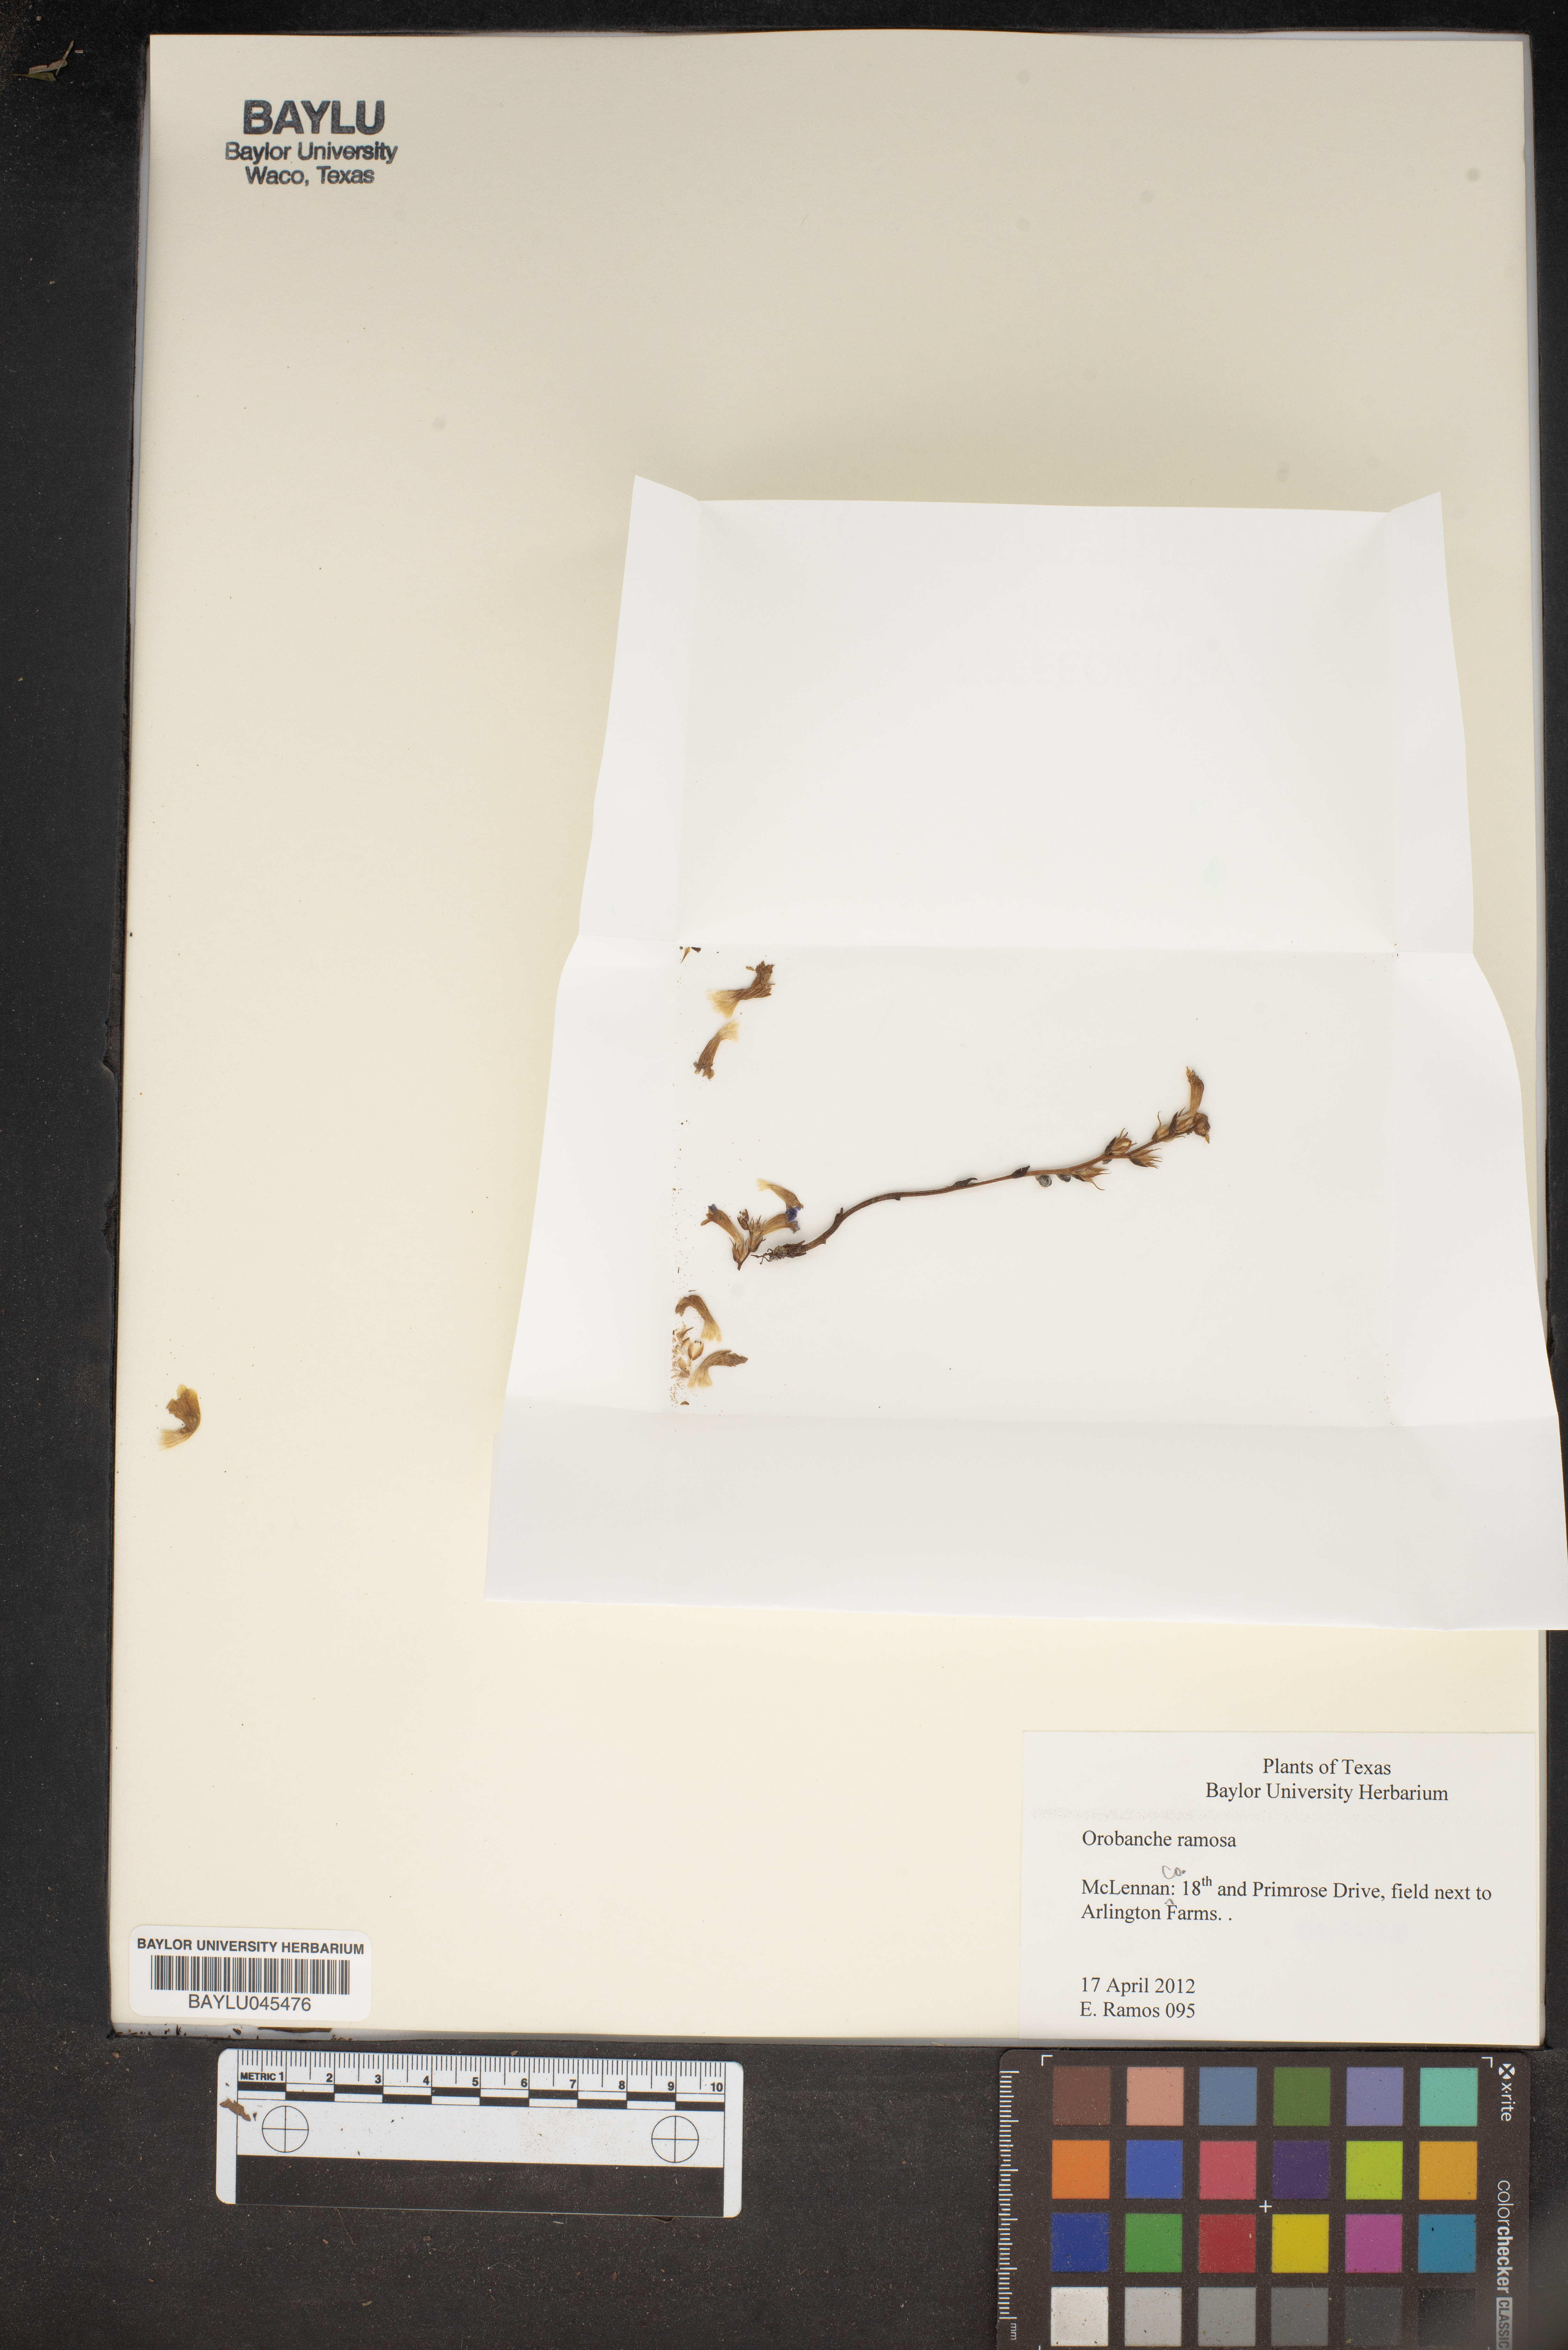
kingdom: Plantae
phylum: Tracheophyta
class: Magnoliopsida
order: Lamiales
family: Orobanchaceae
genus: Phelipanche
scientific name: Phelipanche ramosa
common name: Branched broomrape
